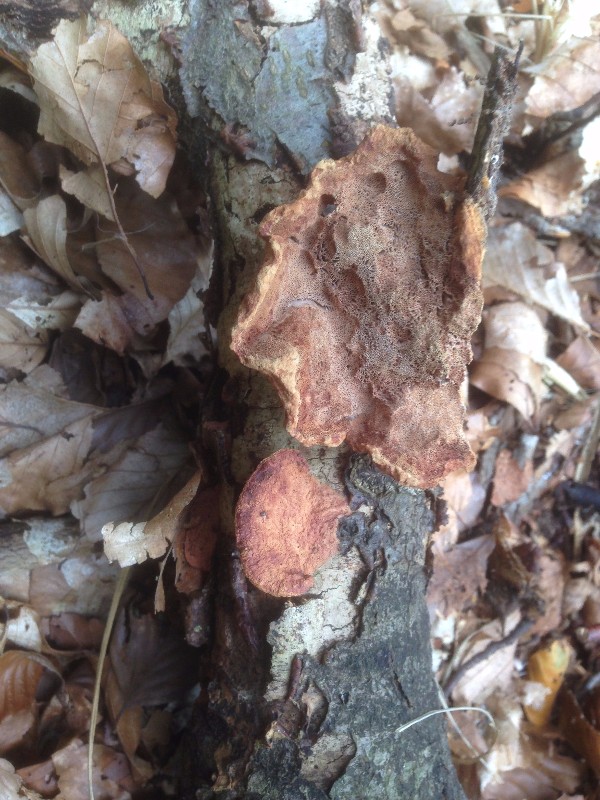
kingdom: Fungi
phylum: Basidiomycota
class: Agaricomycetes
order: Polyporales
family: Phanerochaetaceae
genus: Hapalopilus
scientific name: Hapalopilus rutilans
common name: rødlig okkerporesvamp
